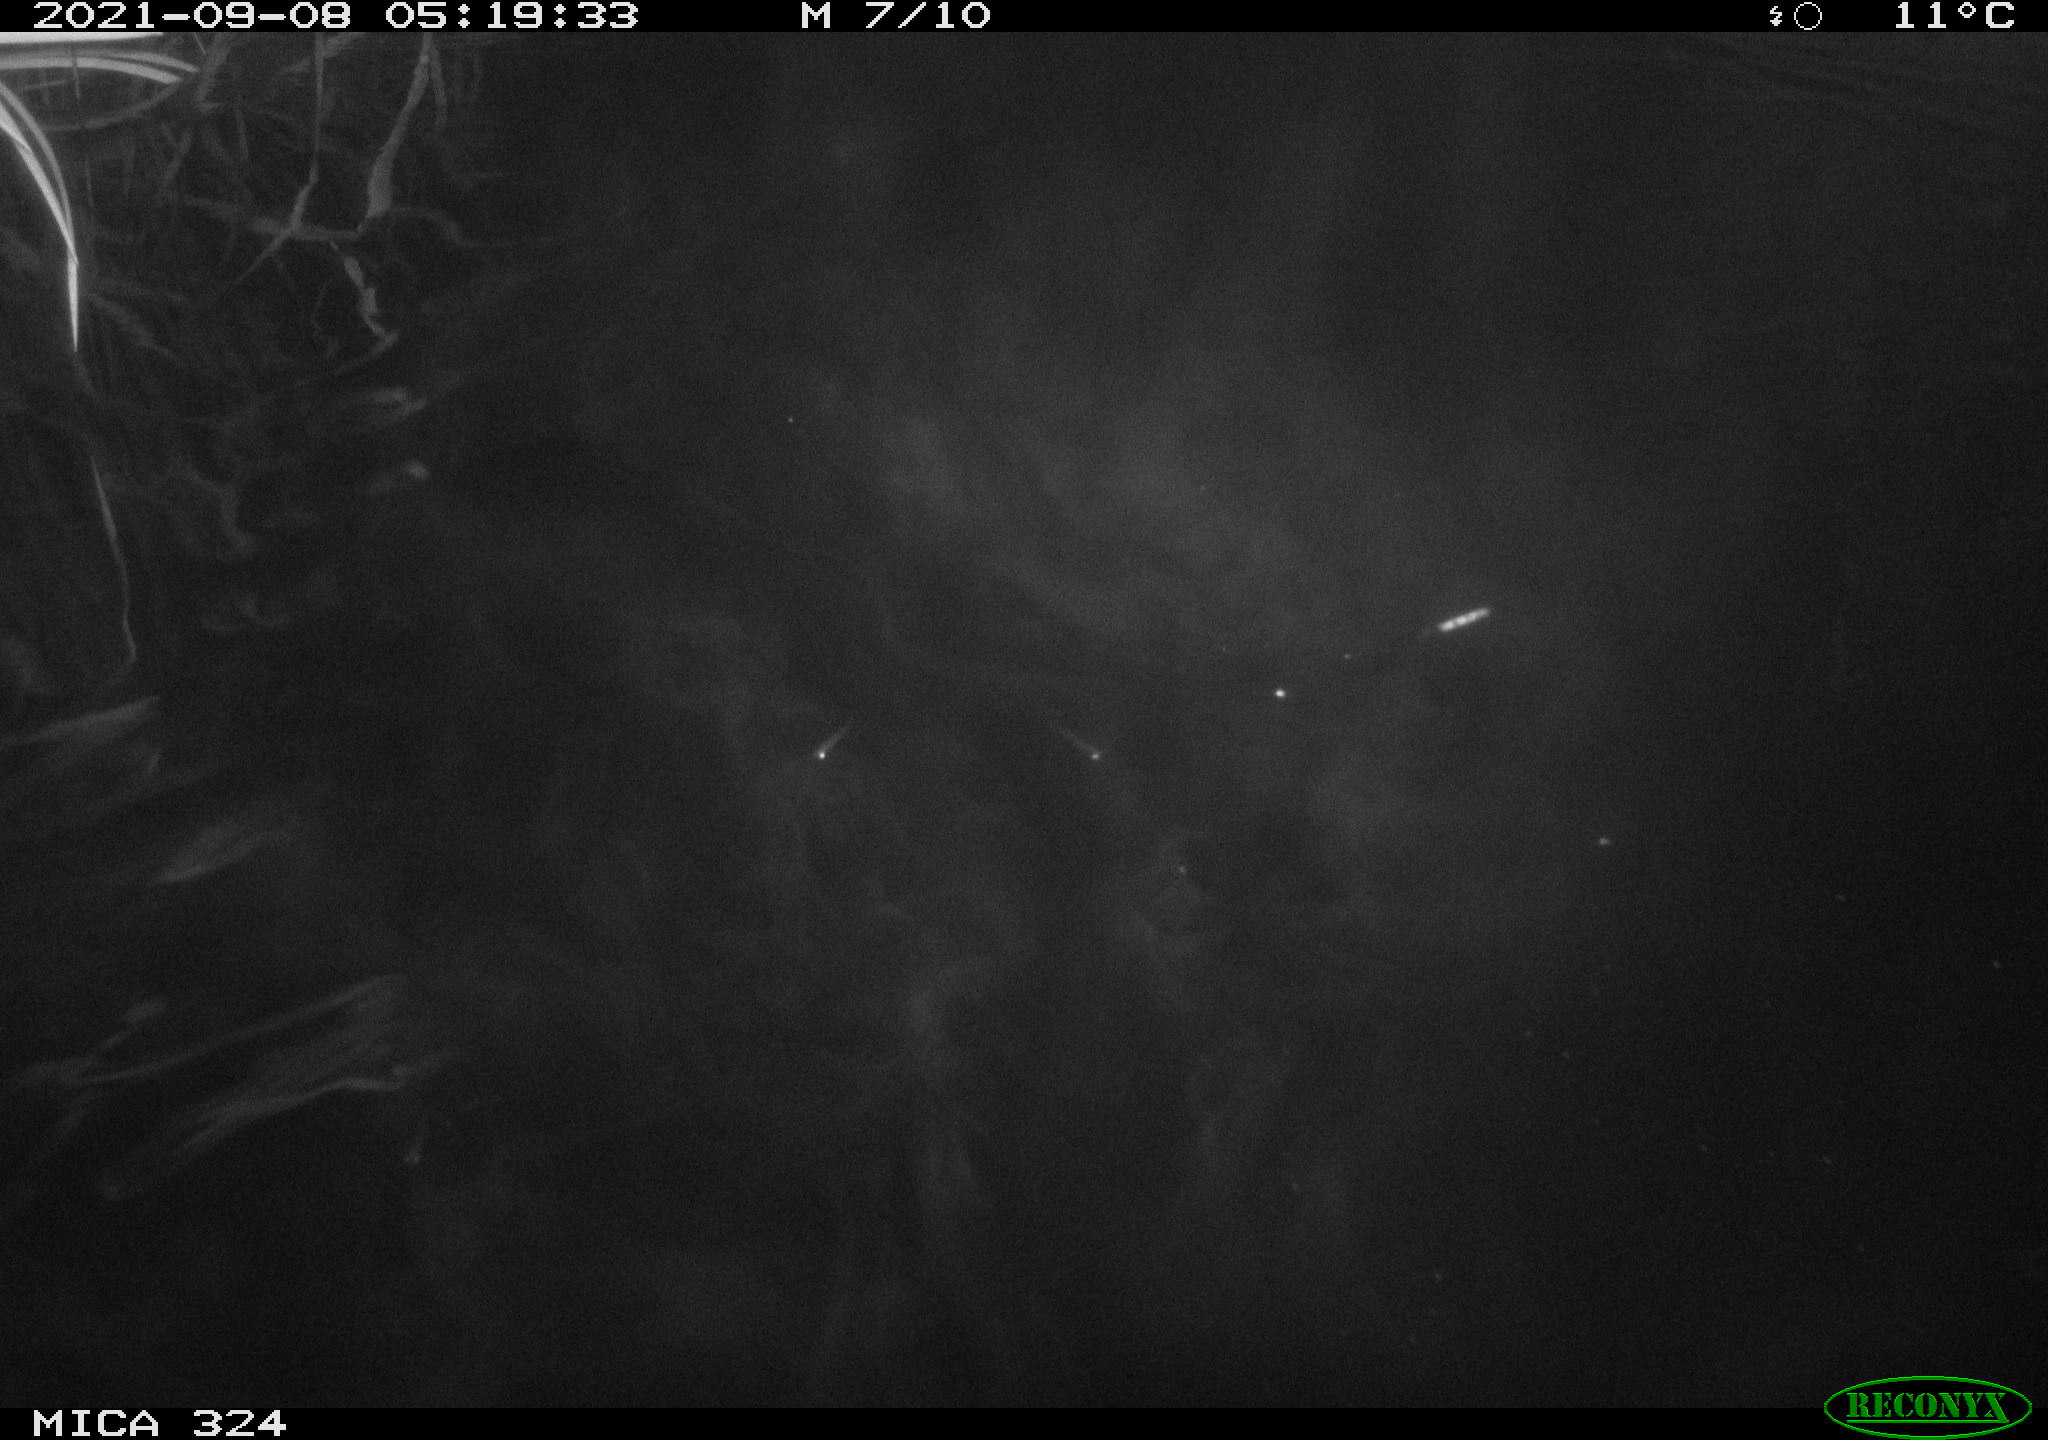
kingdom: Animalia
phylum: Chordata
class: Mammalia
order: Rodentia
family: Cricetidae
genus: Ondatra
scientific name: Ondatra zibethicus
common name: Muskrat
